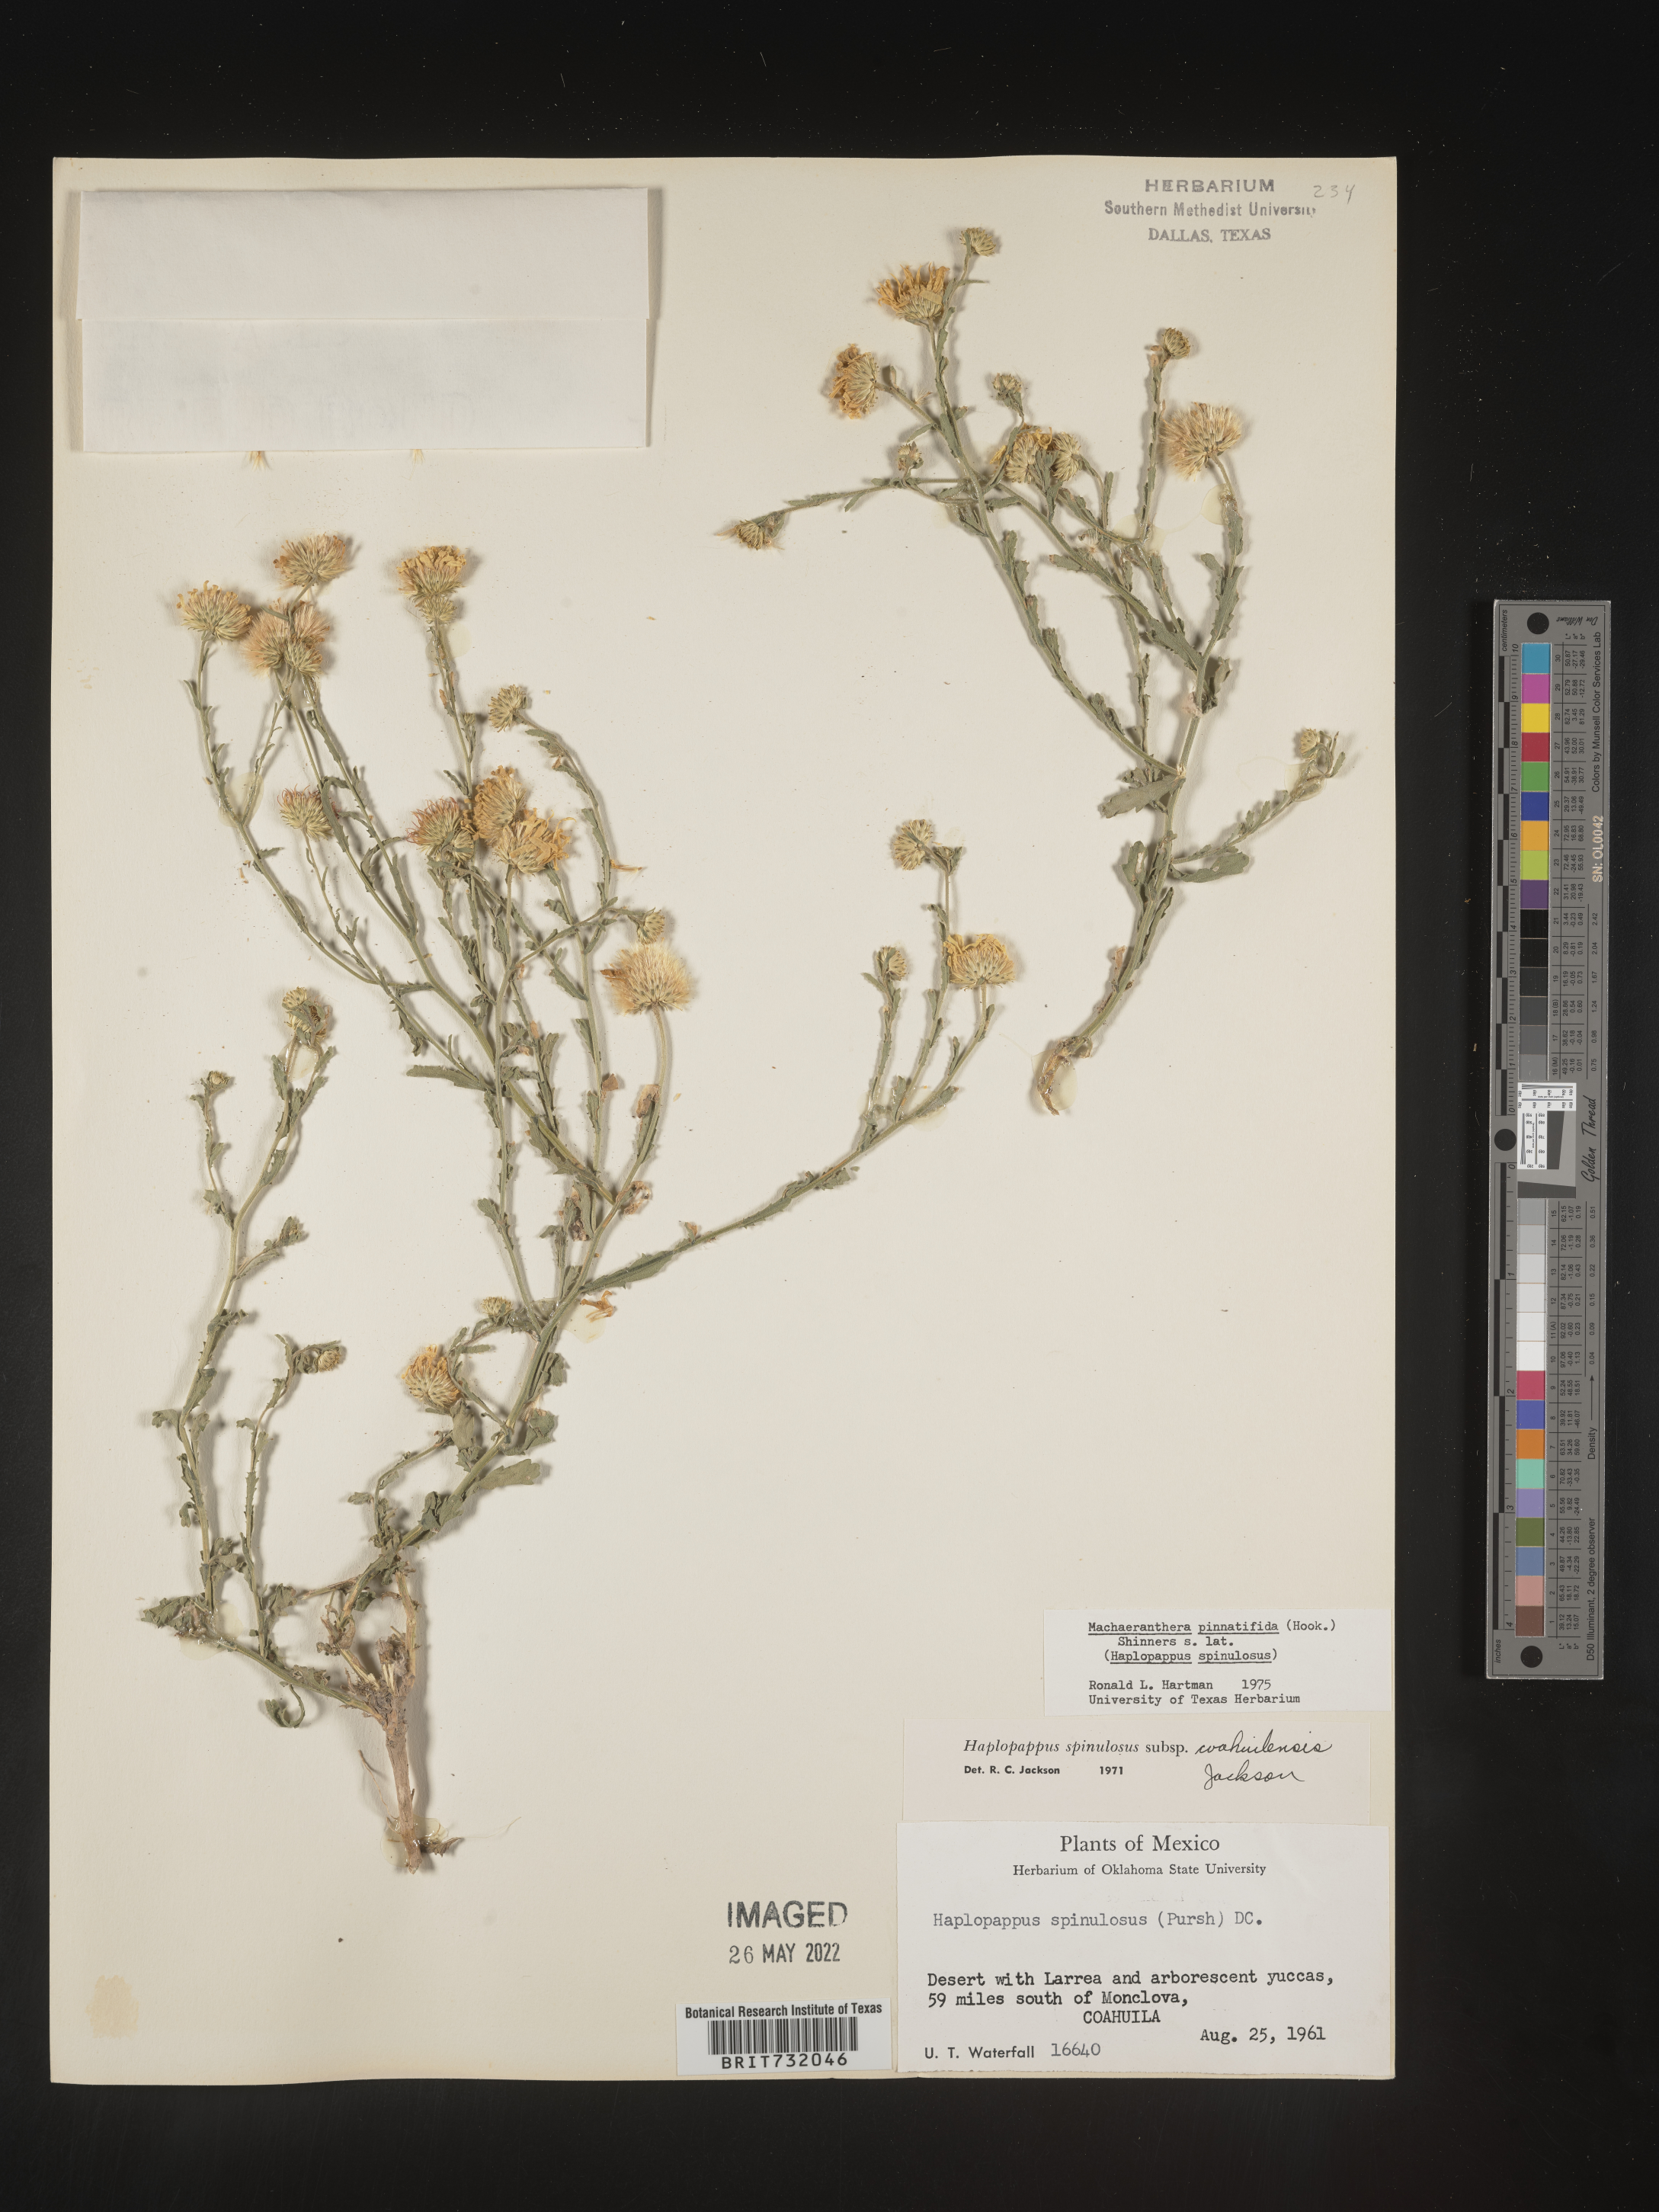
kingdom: Plantae
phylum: Tracheophyta
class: Magnoliopsida
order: Asterales
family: Asteraceae
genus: Xanthisma
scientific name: Xanthisma spinulosum
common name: Spiny goldenweed
